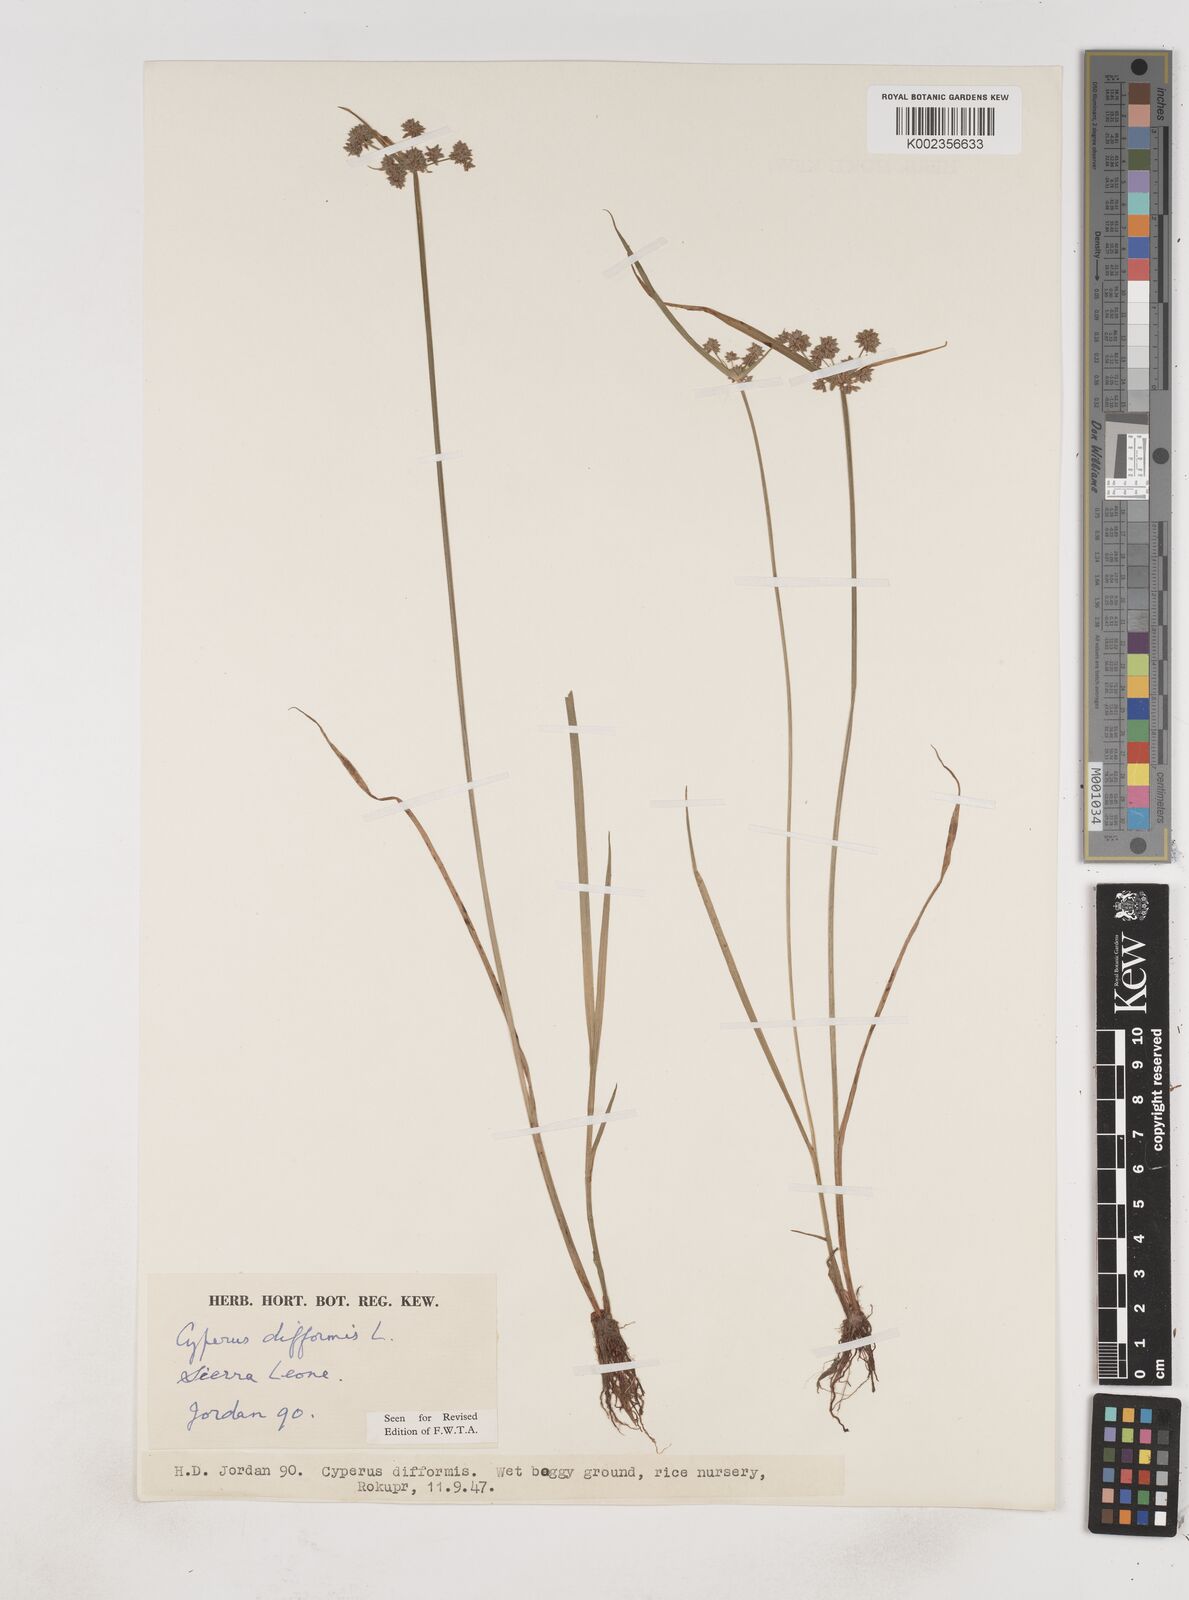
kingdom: Plantae
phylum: Tracheophyta
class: Liliopsida
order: Poales
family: Cyperaceae
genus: Cyperus
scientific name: Cyperus difformis
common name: Variable flatsedge
